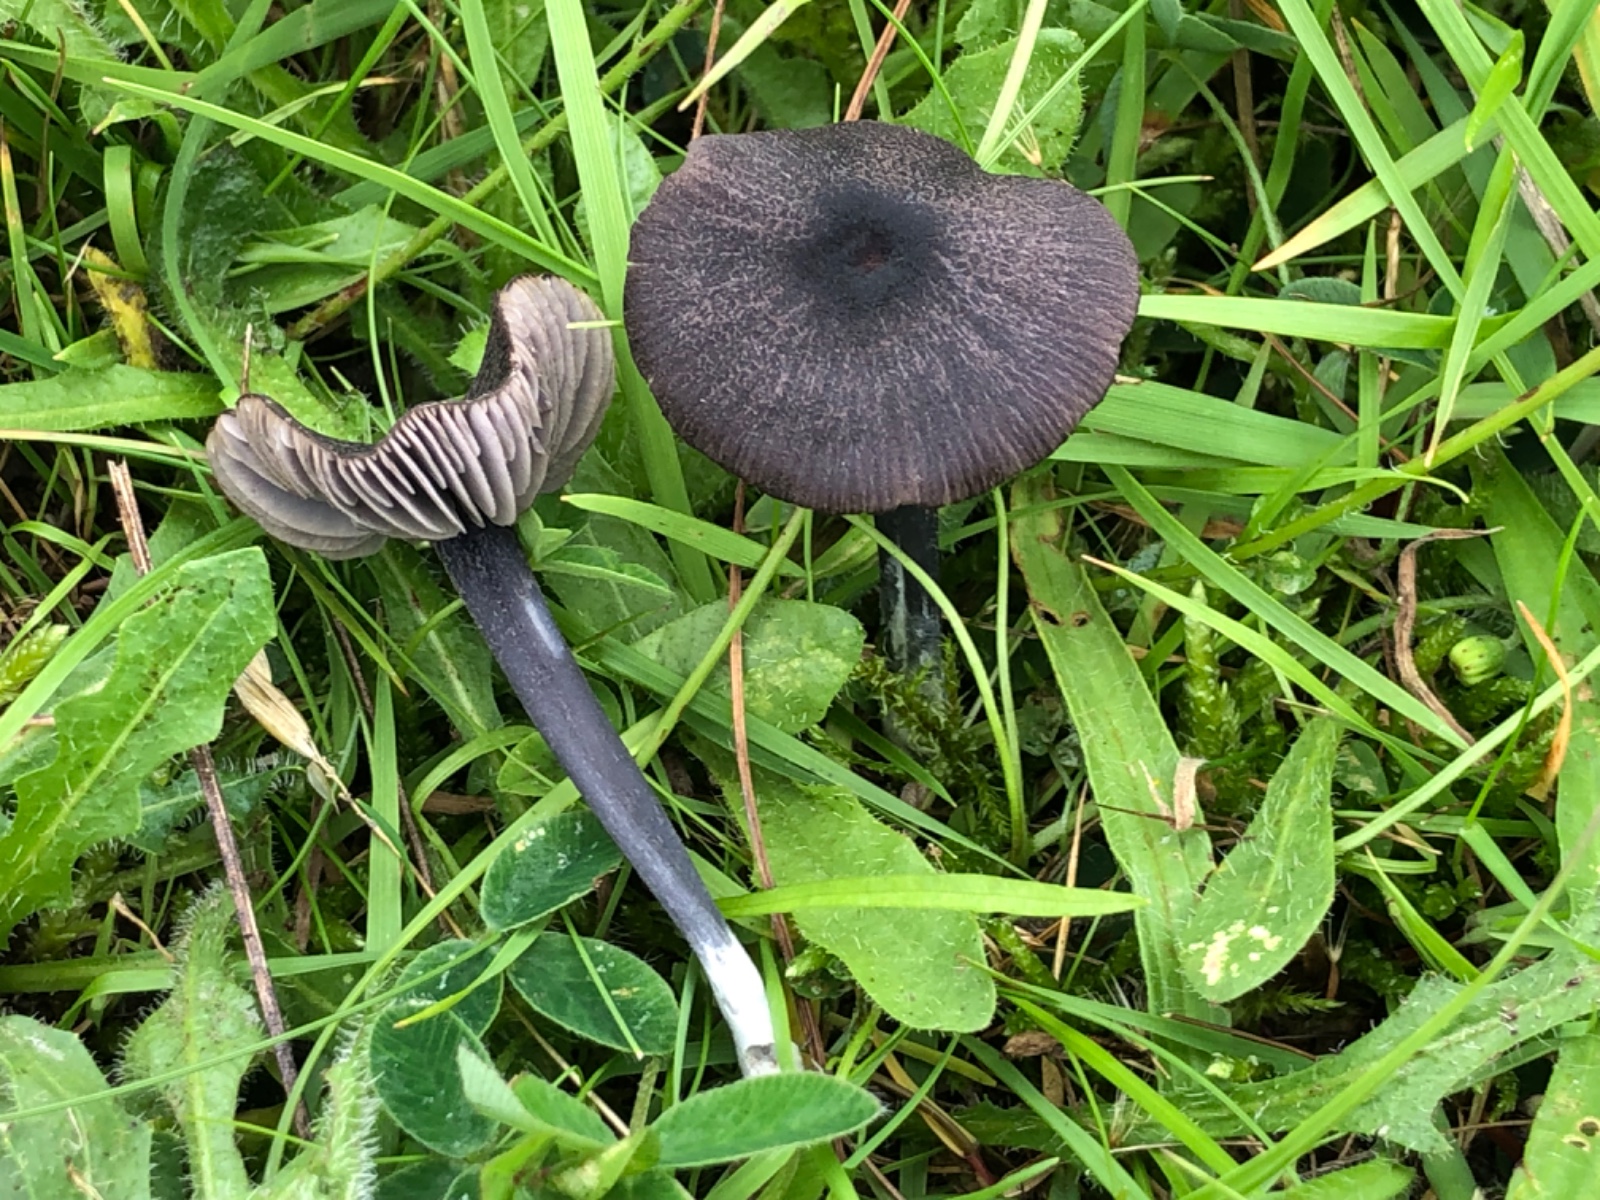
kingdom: Fungi
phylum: Basidiomycota
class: Agaricomycetes
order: Agaricales
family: Entolomataceae
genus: Entoloma
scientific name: Entoloma atrocoeruleum
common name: sortblå rødblad
